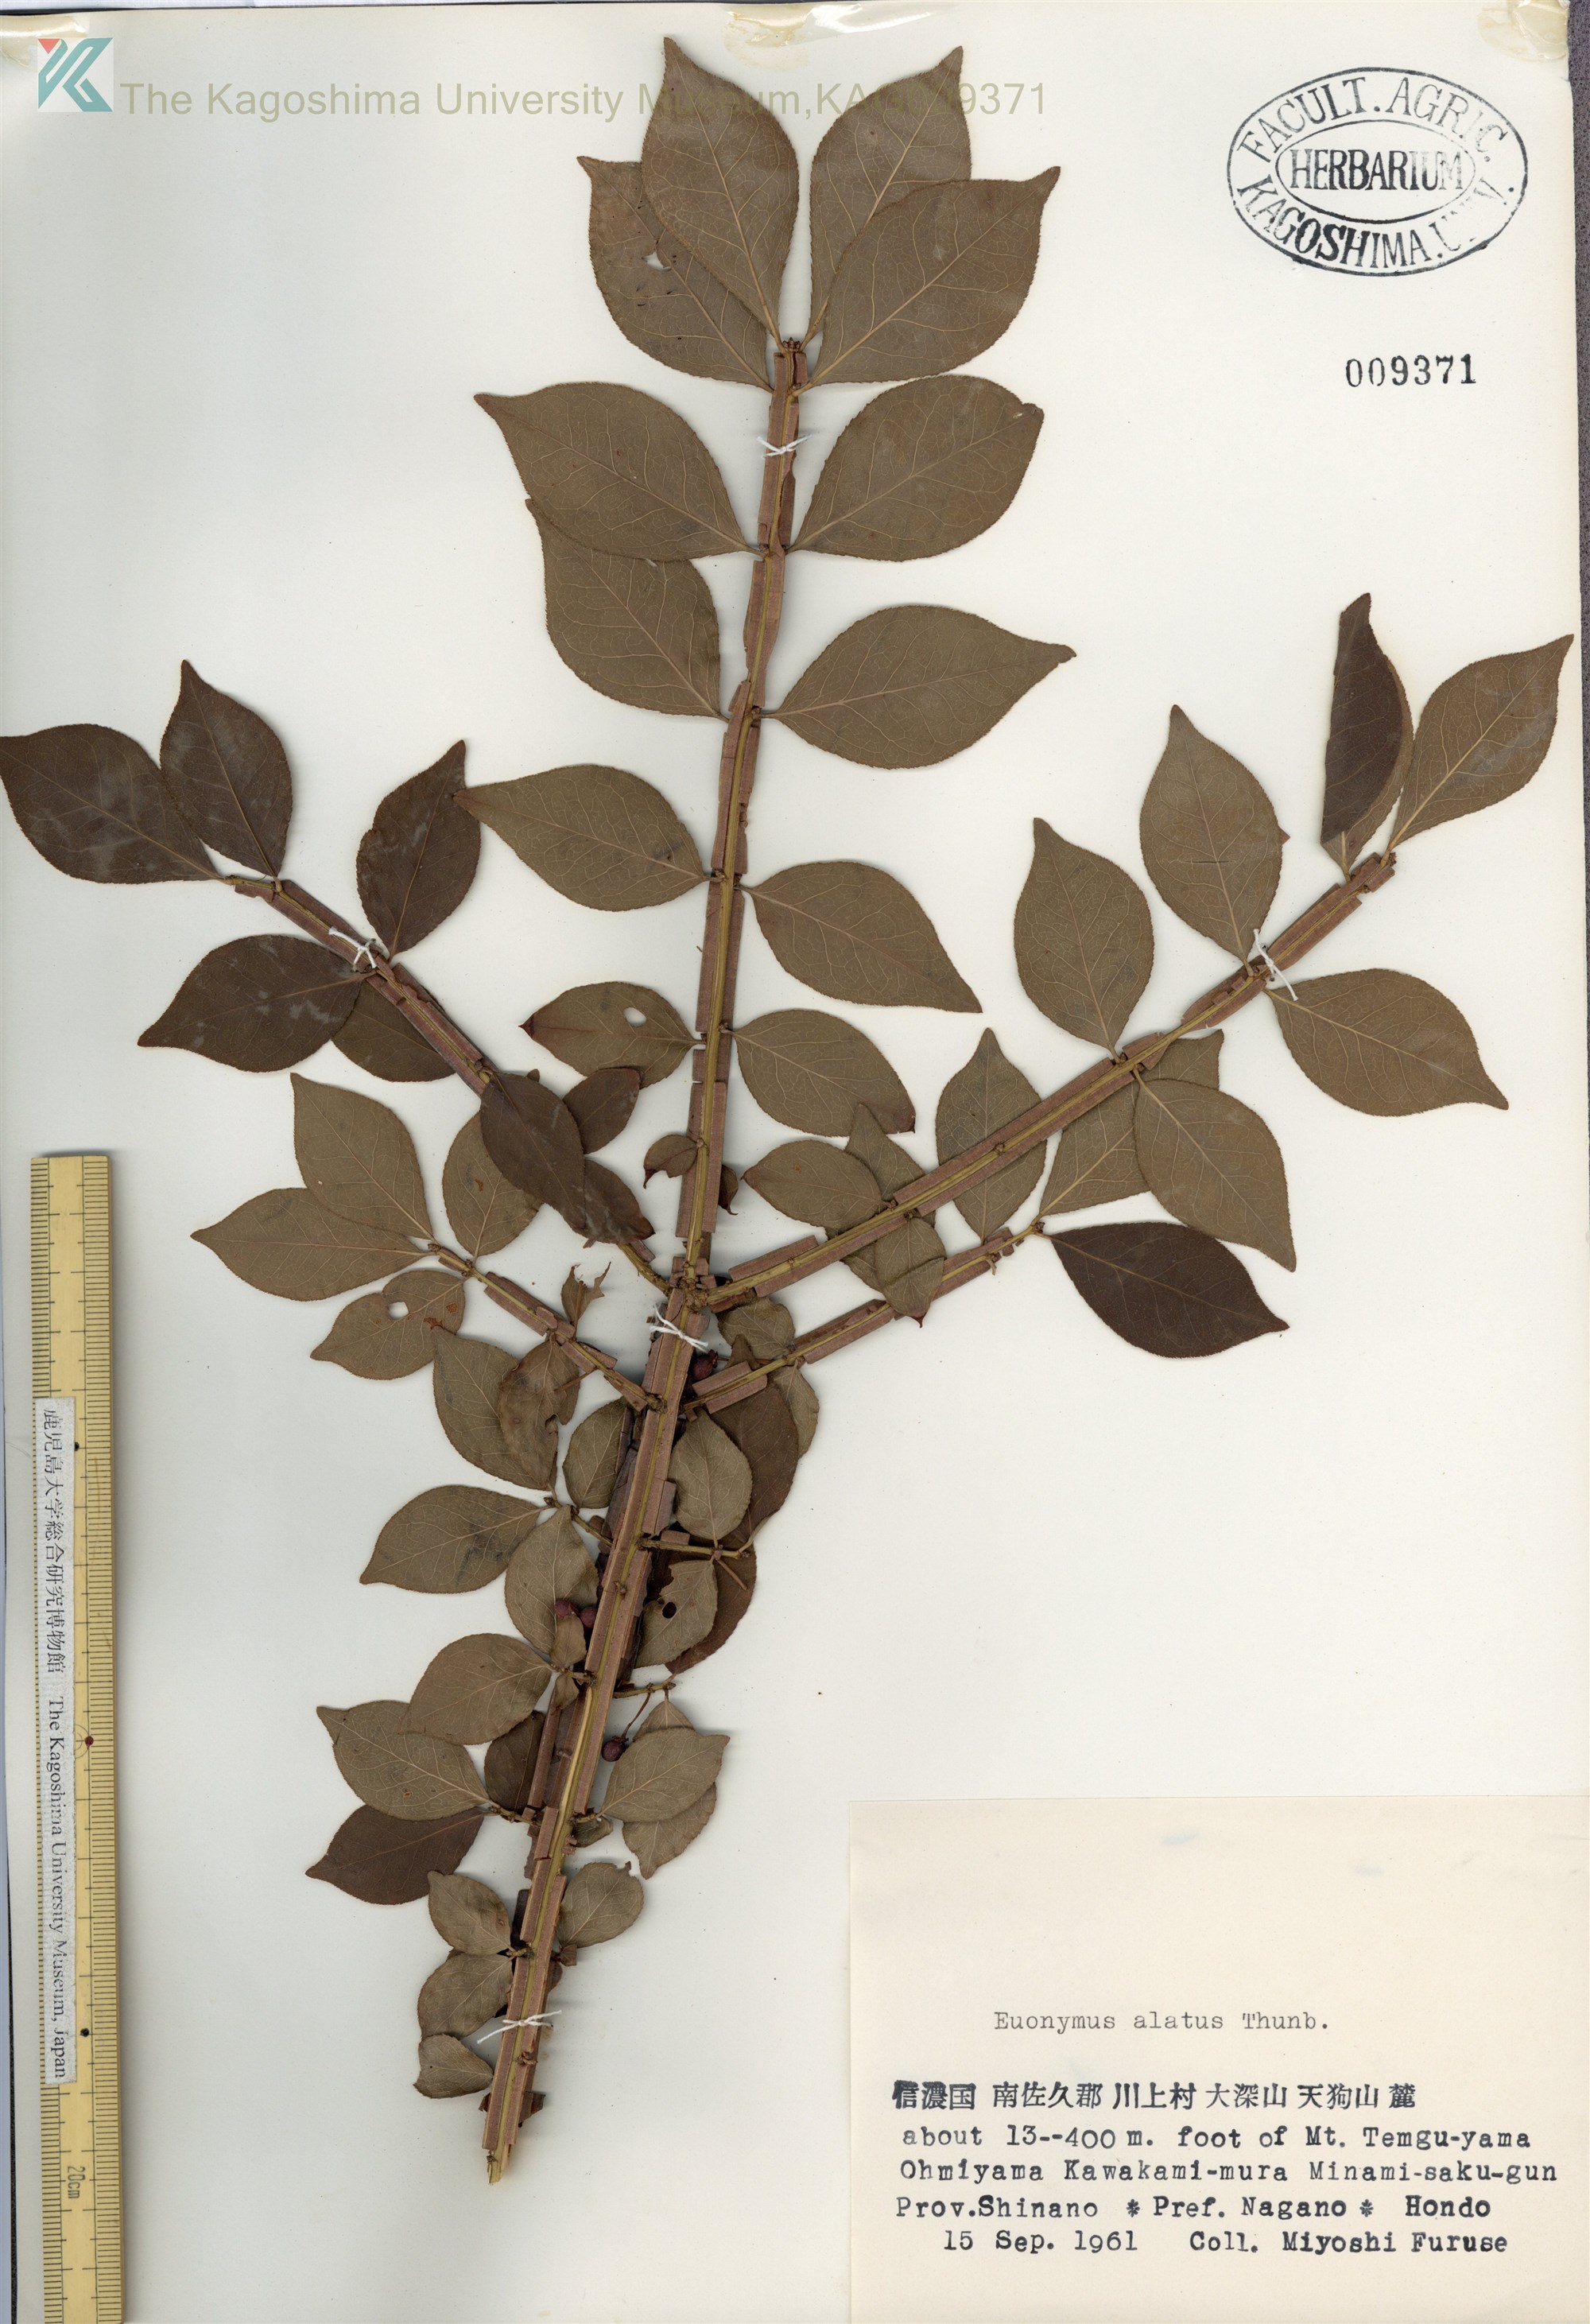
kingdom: Plantae
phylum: Tracheophyta
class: Magnoliopsida
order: Celastrales
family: Celastraceae
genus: Euonymus
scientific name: Euonymus alatus
